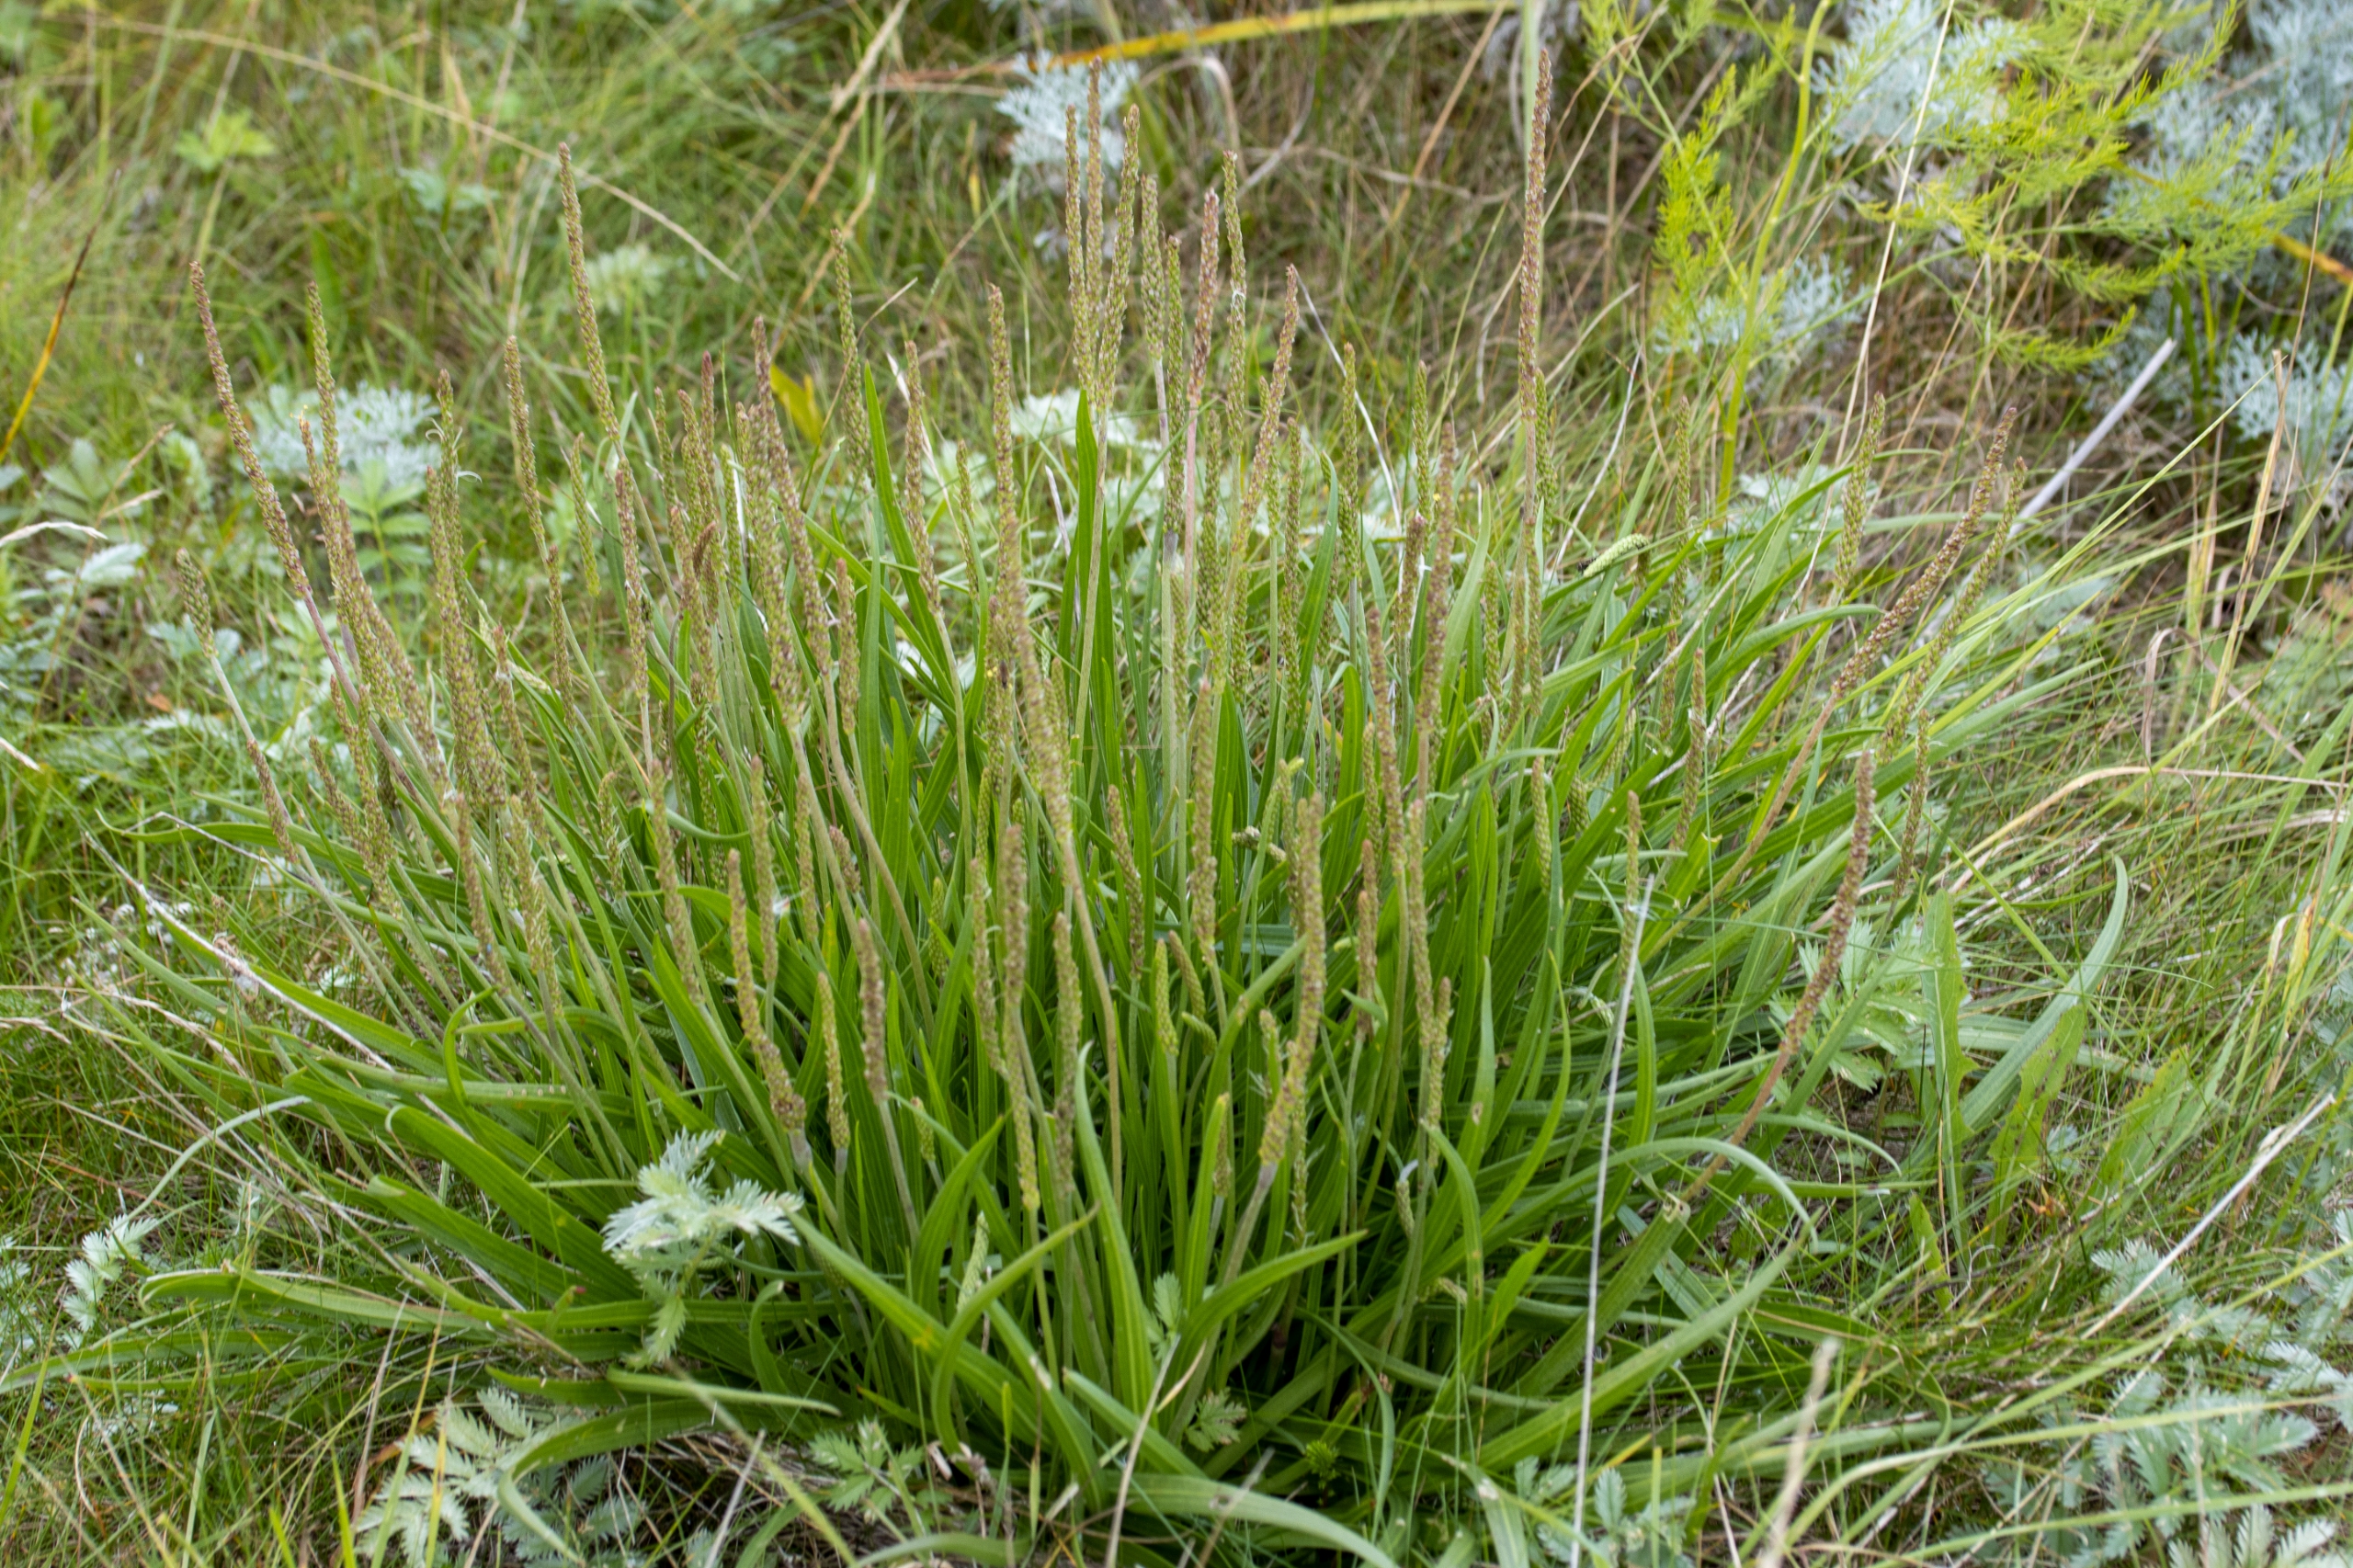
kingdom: Plantae
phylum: Tracheophyta
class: Magnoliopsida
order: Lamiales
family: Plantaginaceae
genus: Plantago
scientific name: Plantago maritima
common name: Strand-vejbred
